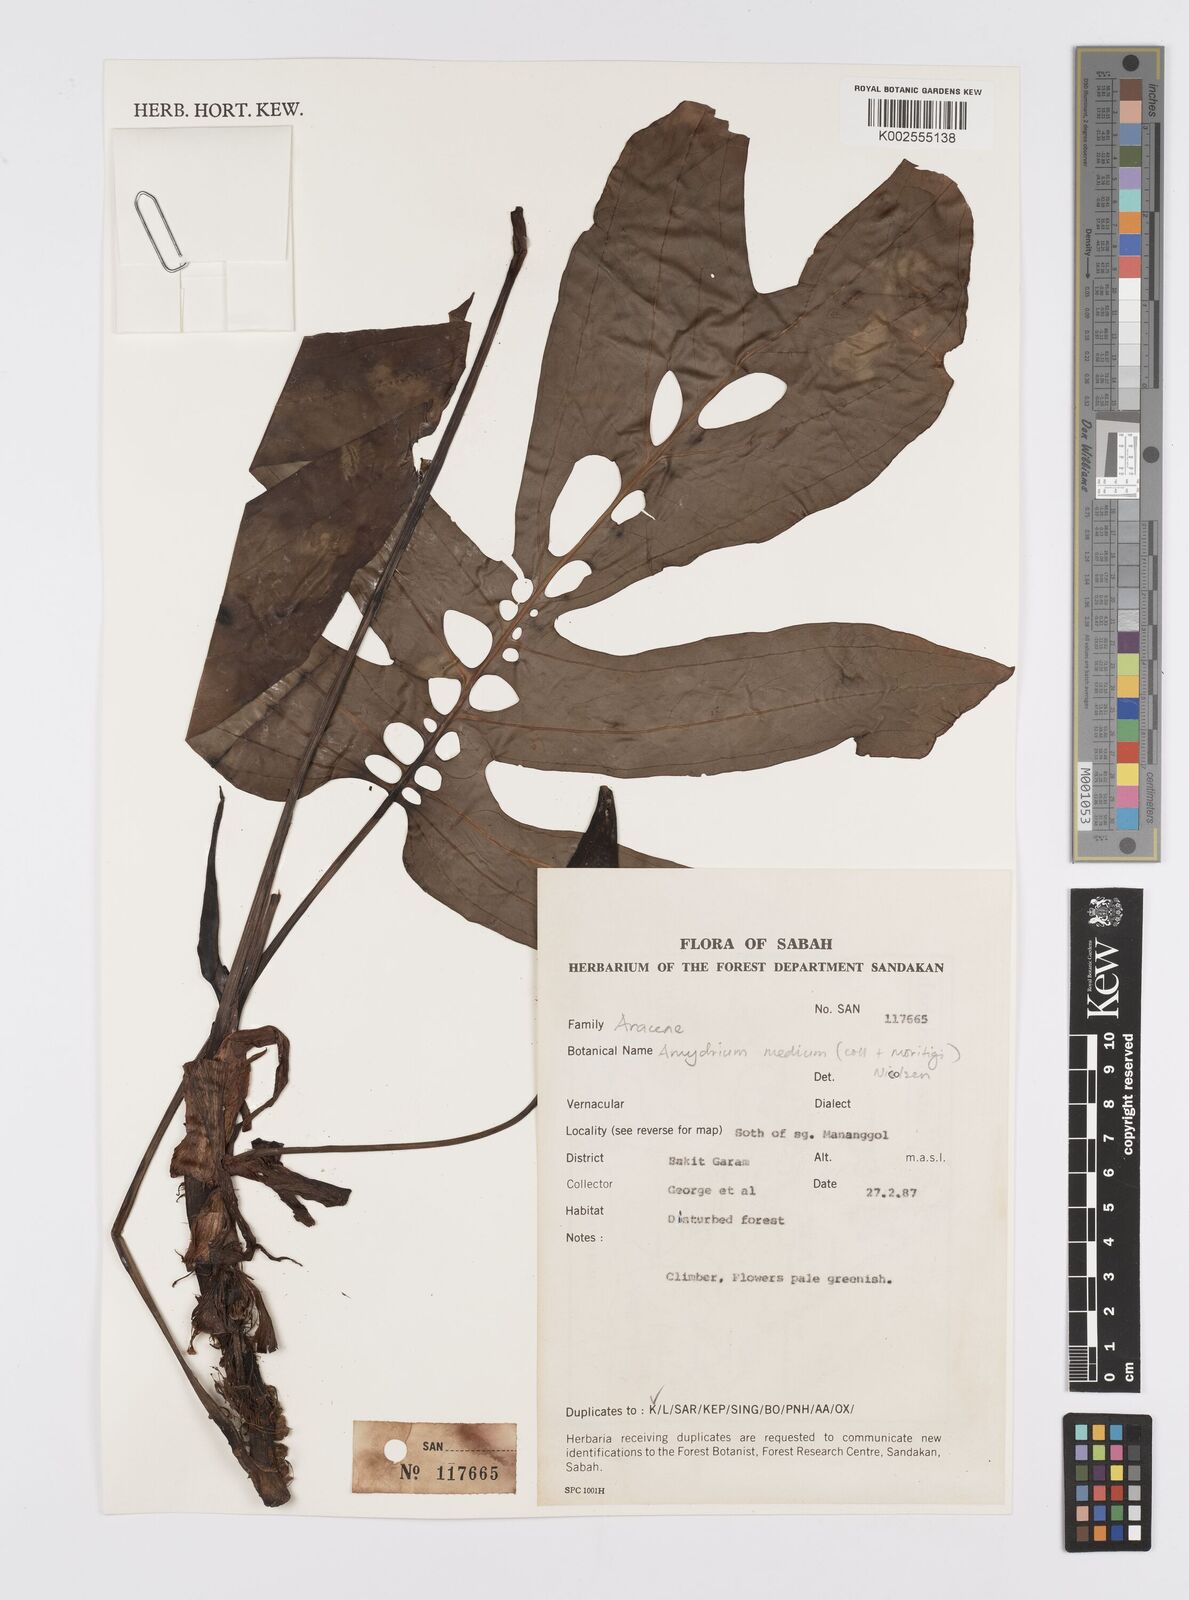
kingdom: Plantae
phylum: Tracheophyta
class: Liliopsida
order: Alismatales
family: Araceae
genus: Amydrium
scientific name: Amydrium medium
